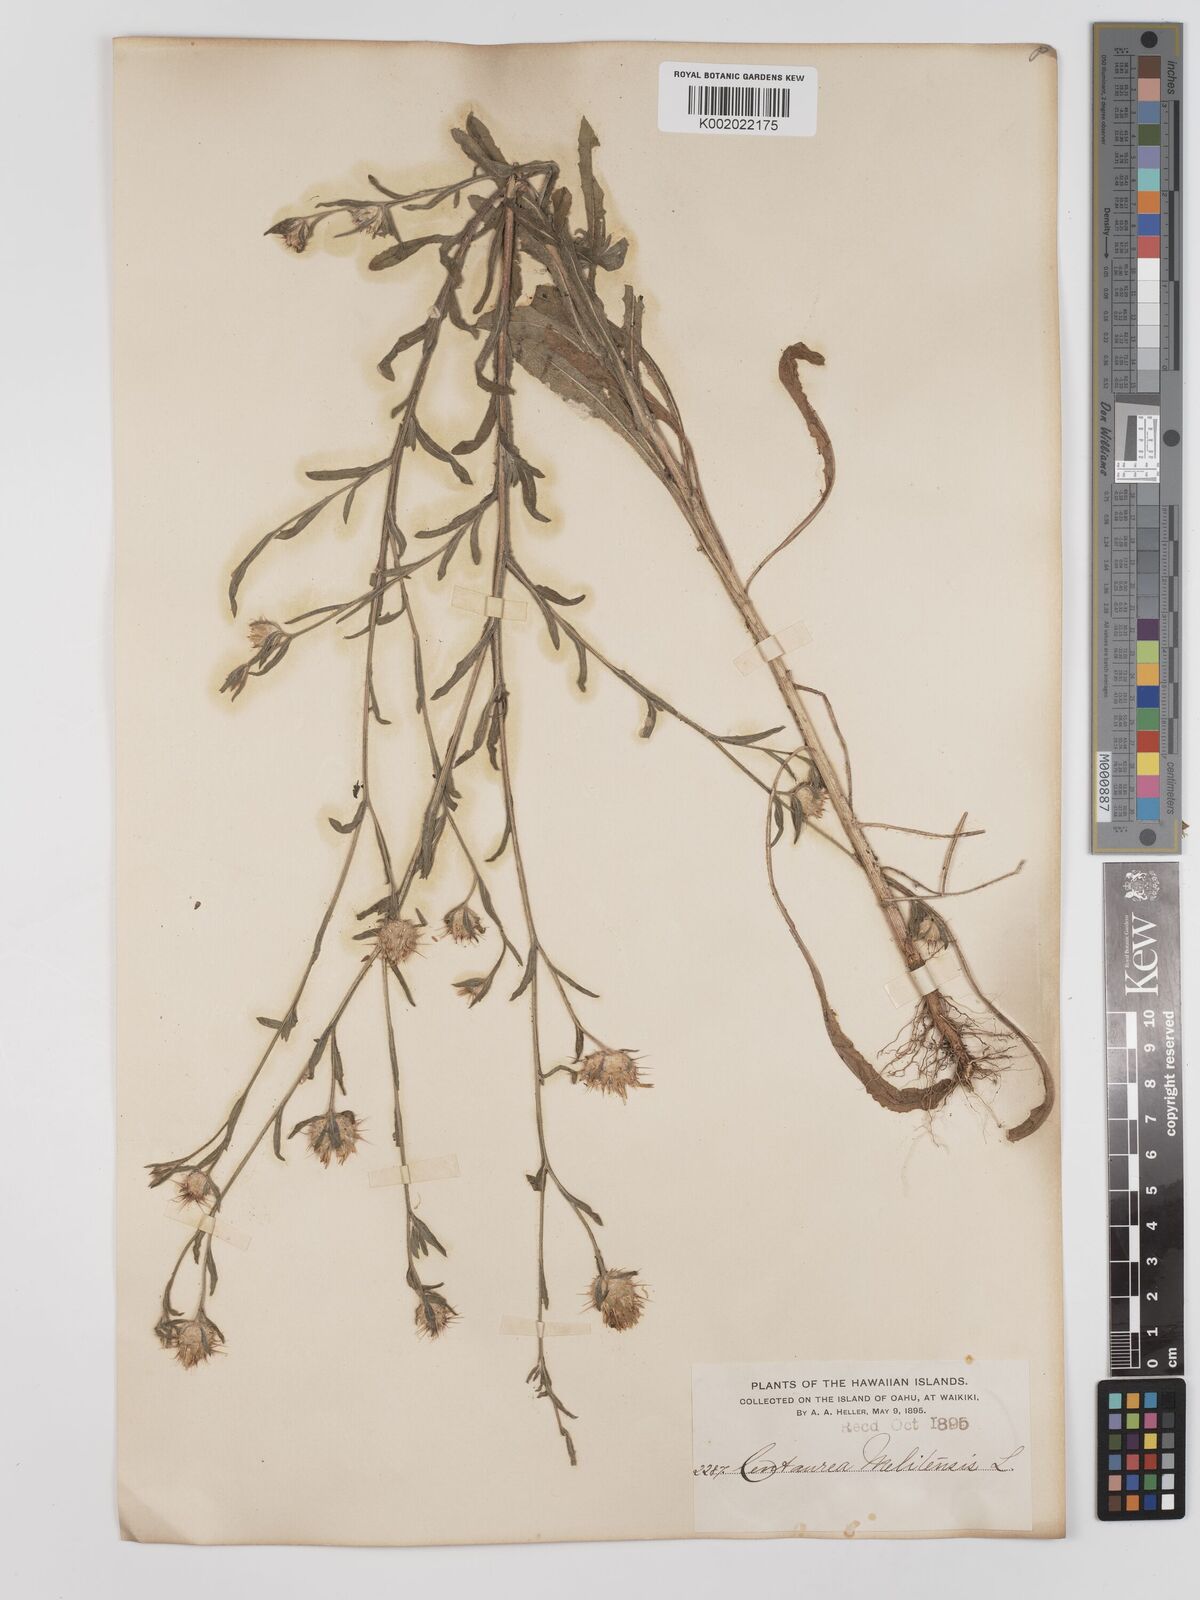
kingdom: Plantae
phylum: Tracheophyta
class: Magnoliopsida
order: Asterales
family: Asteraceae
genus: Centaurea
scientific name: Centaurea melitensis
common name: Maltese star-thistle
